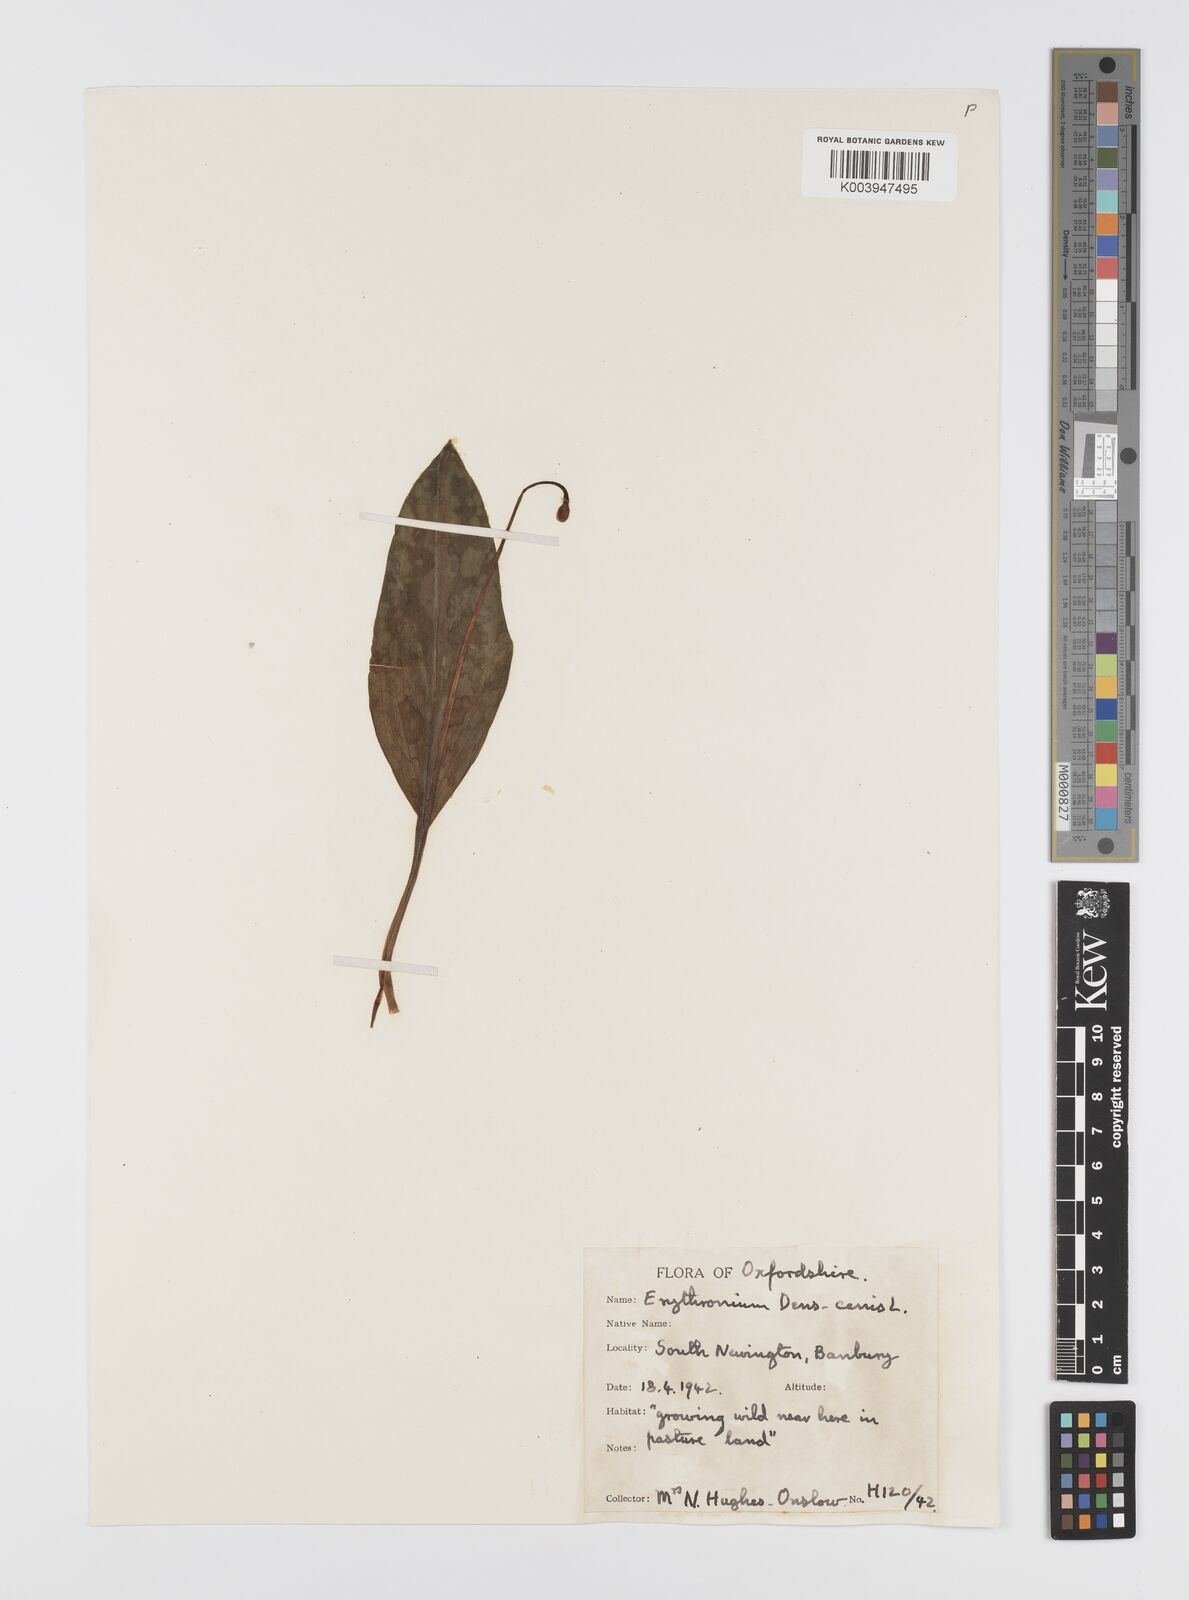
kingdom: Plantae
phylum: Tracheophyta
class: Liliopsida
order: Liliales
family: Liliaceae
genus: Erythronium
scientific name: Erythronium dens-canis
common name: Dog's-tooth-violet
